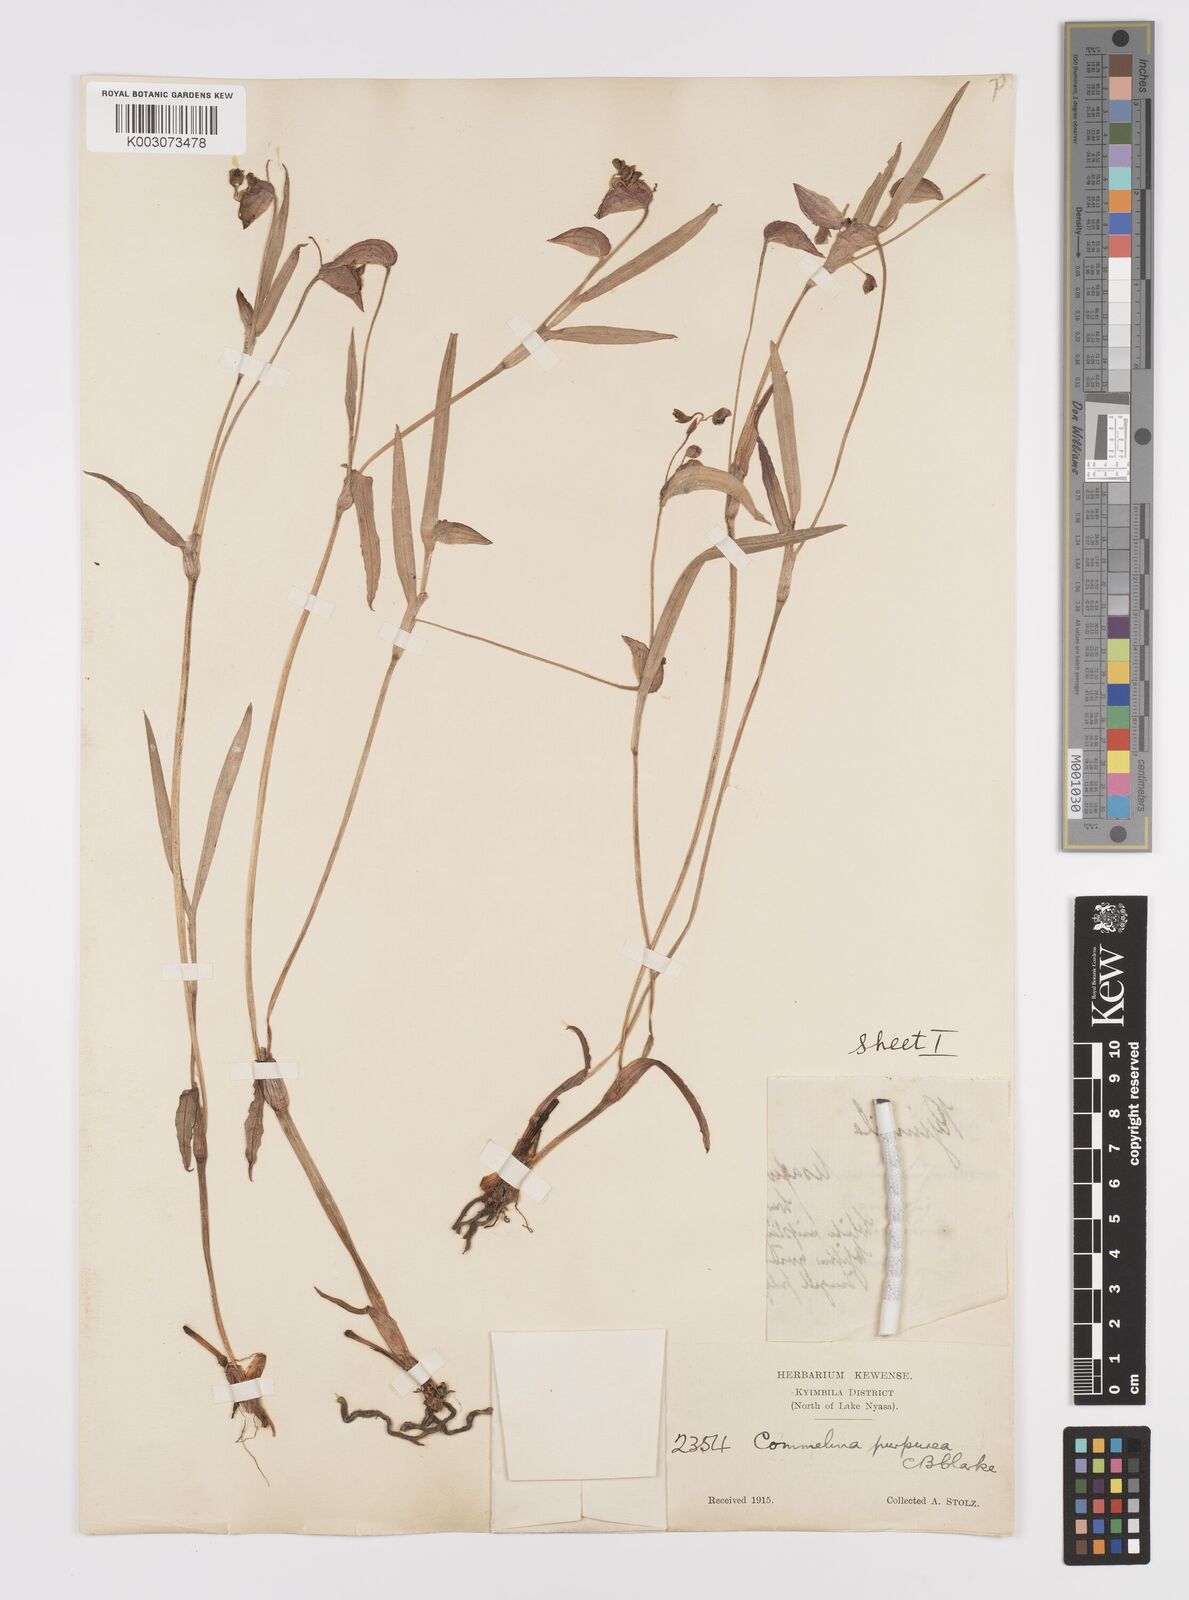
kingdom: Plantae
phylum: Tracheophyta
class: Liliopsida
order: Commelinales
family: Commelinaceae
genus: Commelina
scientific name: Commelina kituloensis
